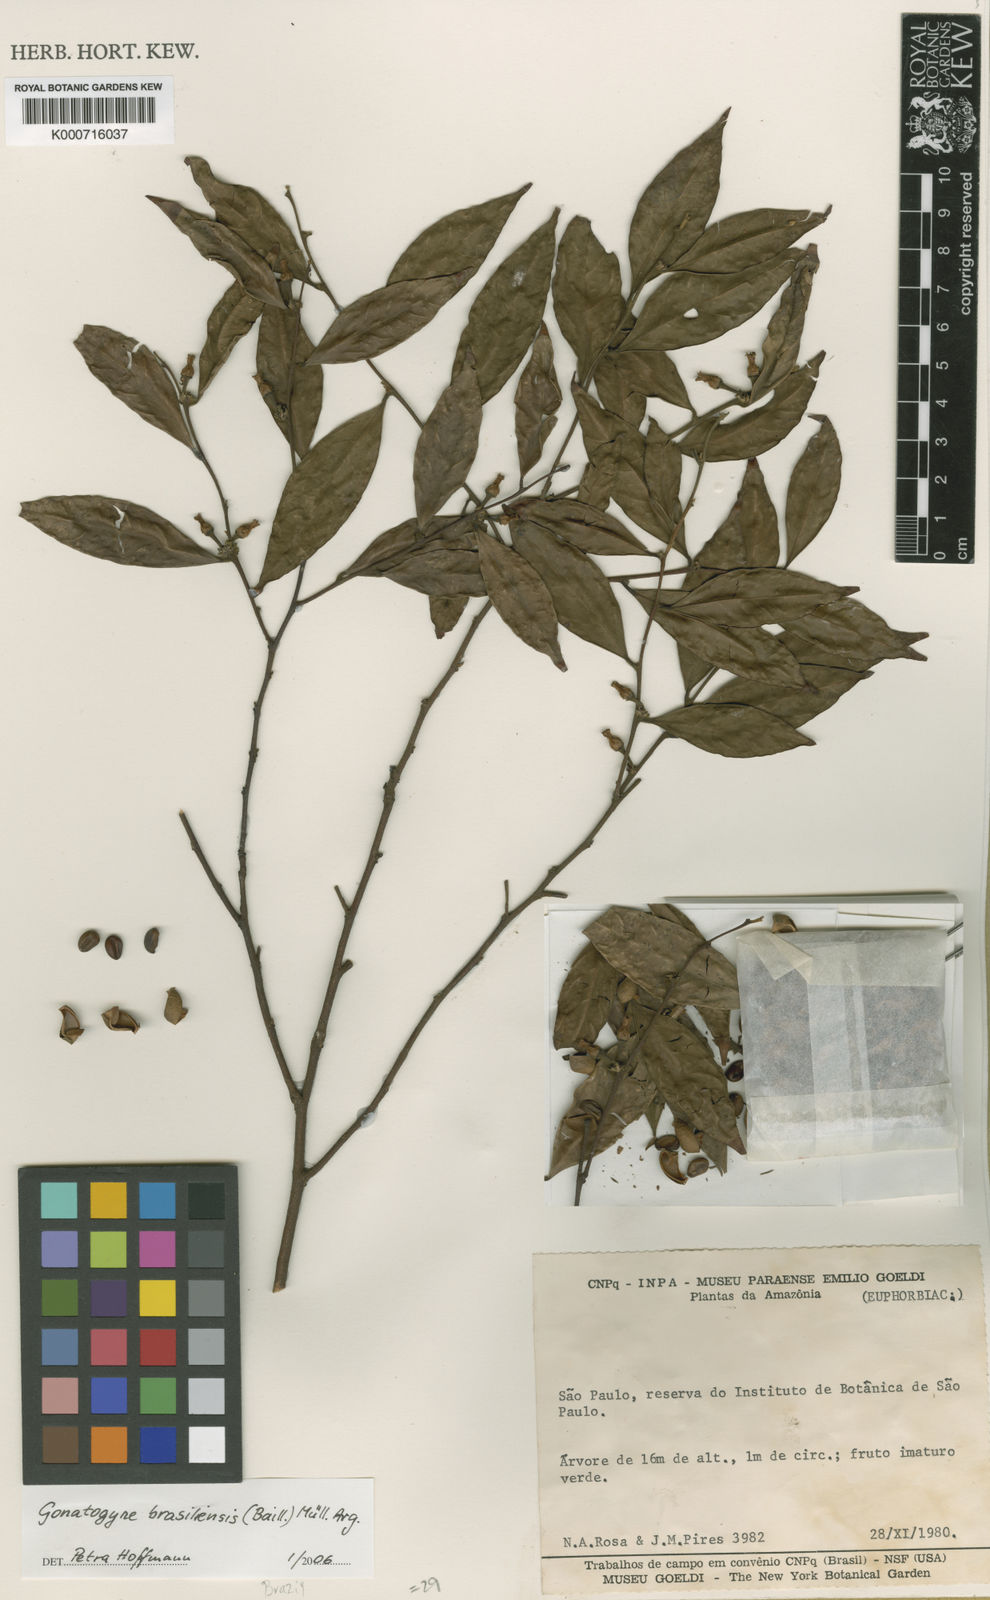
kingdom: Plantae
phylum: Tracheophyta
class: Magnoliopsida
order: Malpighiales
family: Phyllanthaceae
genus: Gonatogyne
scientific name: Gonatogyne
